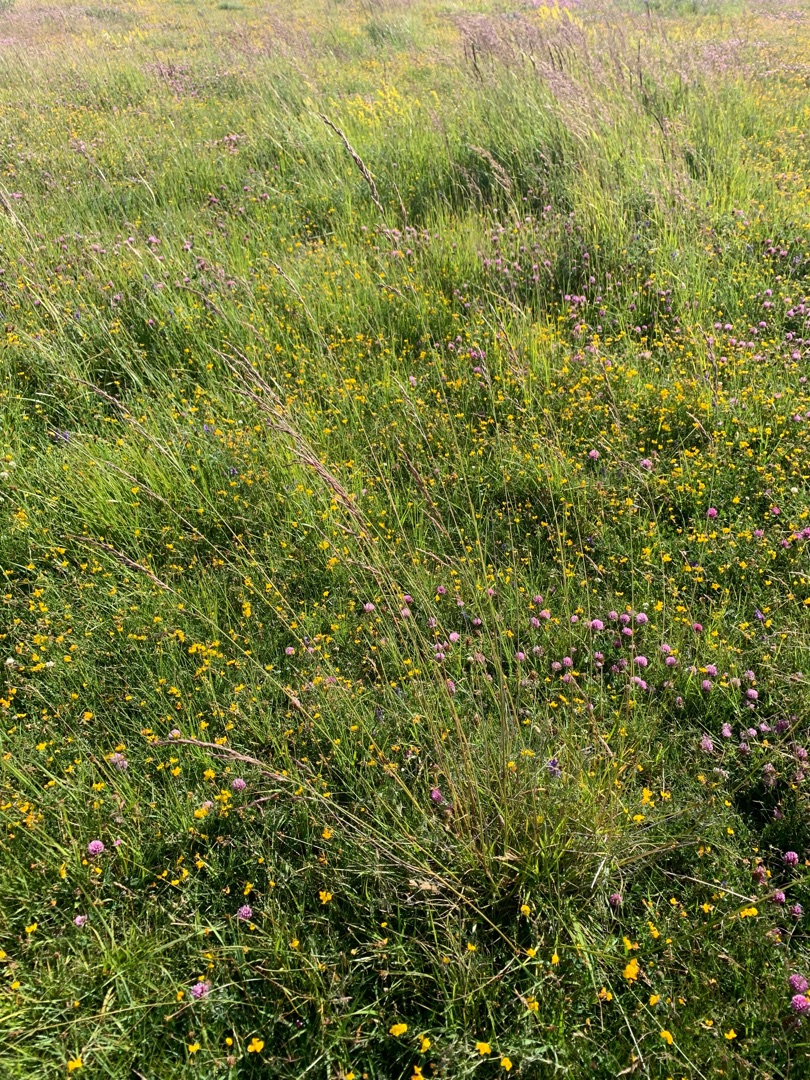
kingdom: Plantae
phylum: Tracheophyta
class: Liliopsida
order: Poales
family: Poaceae
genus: Lolium
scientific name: Lolium pratense
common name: Eng-svingel
